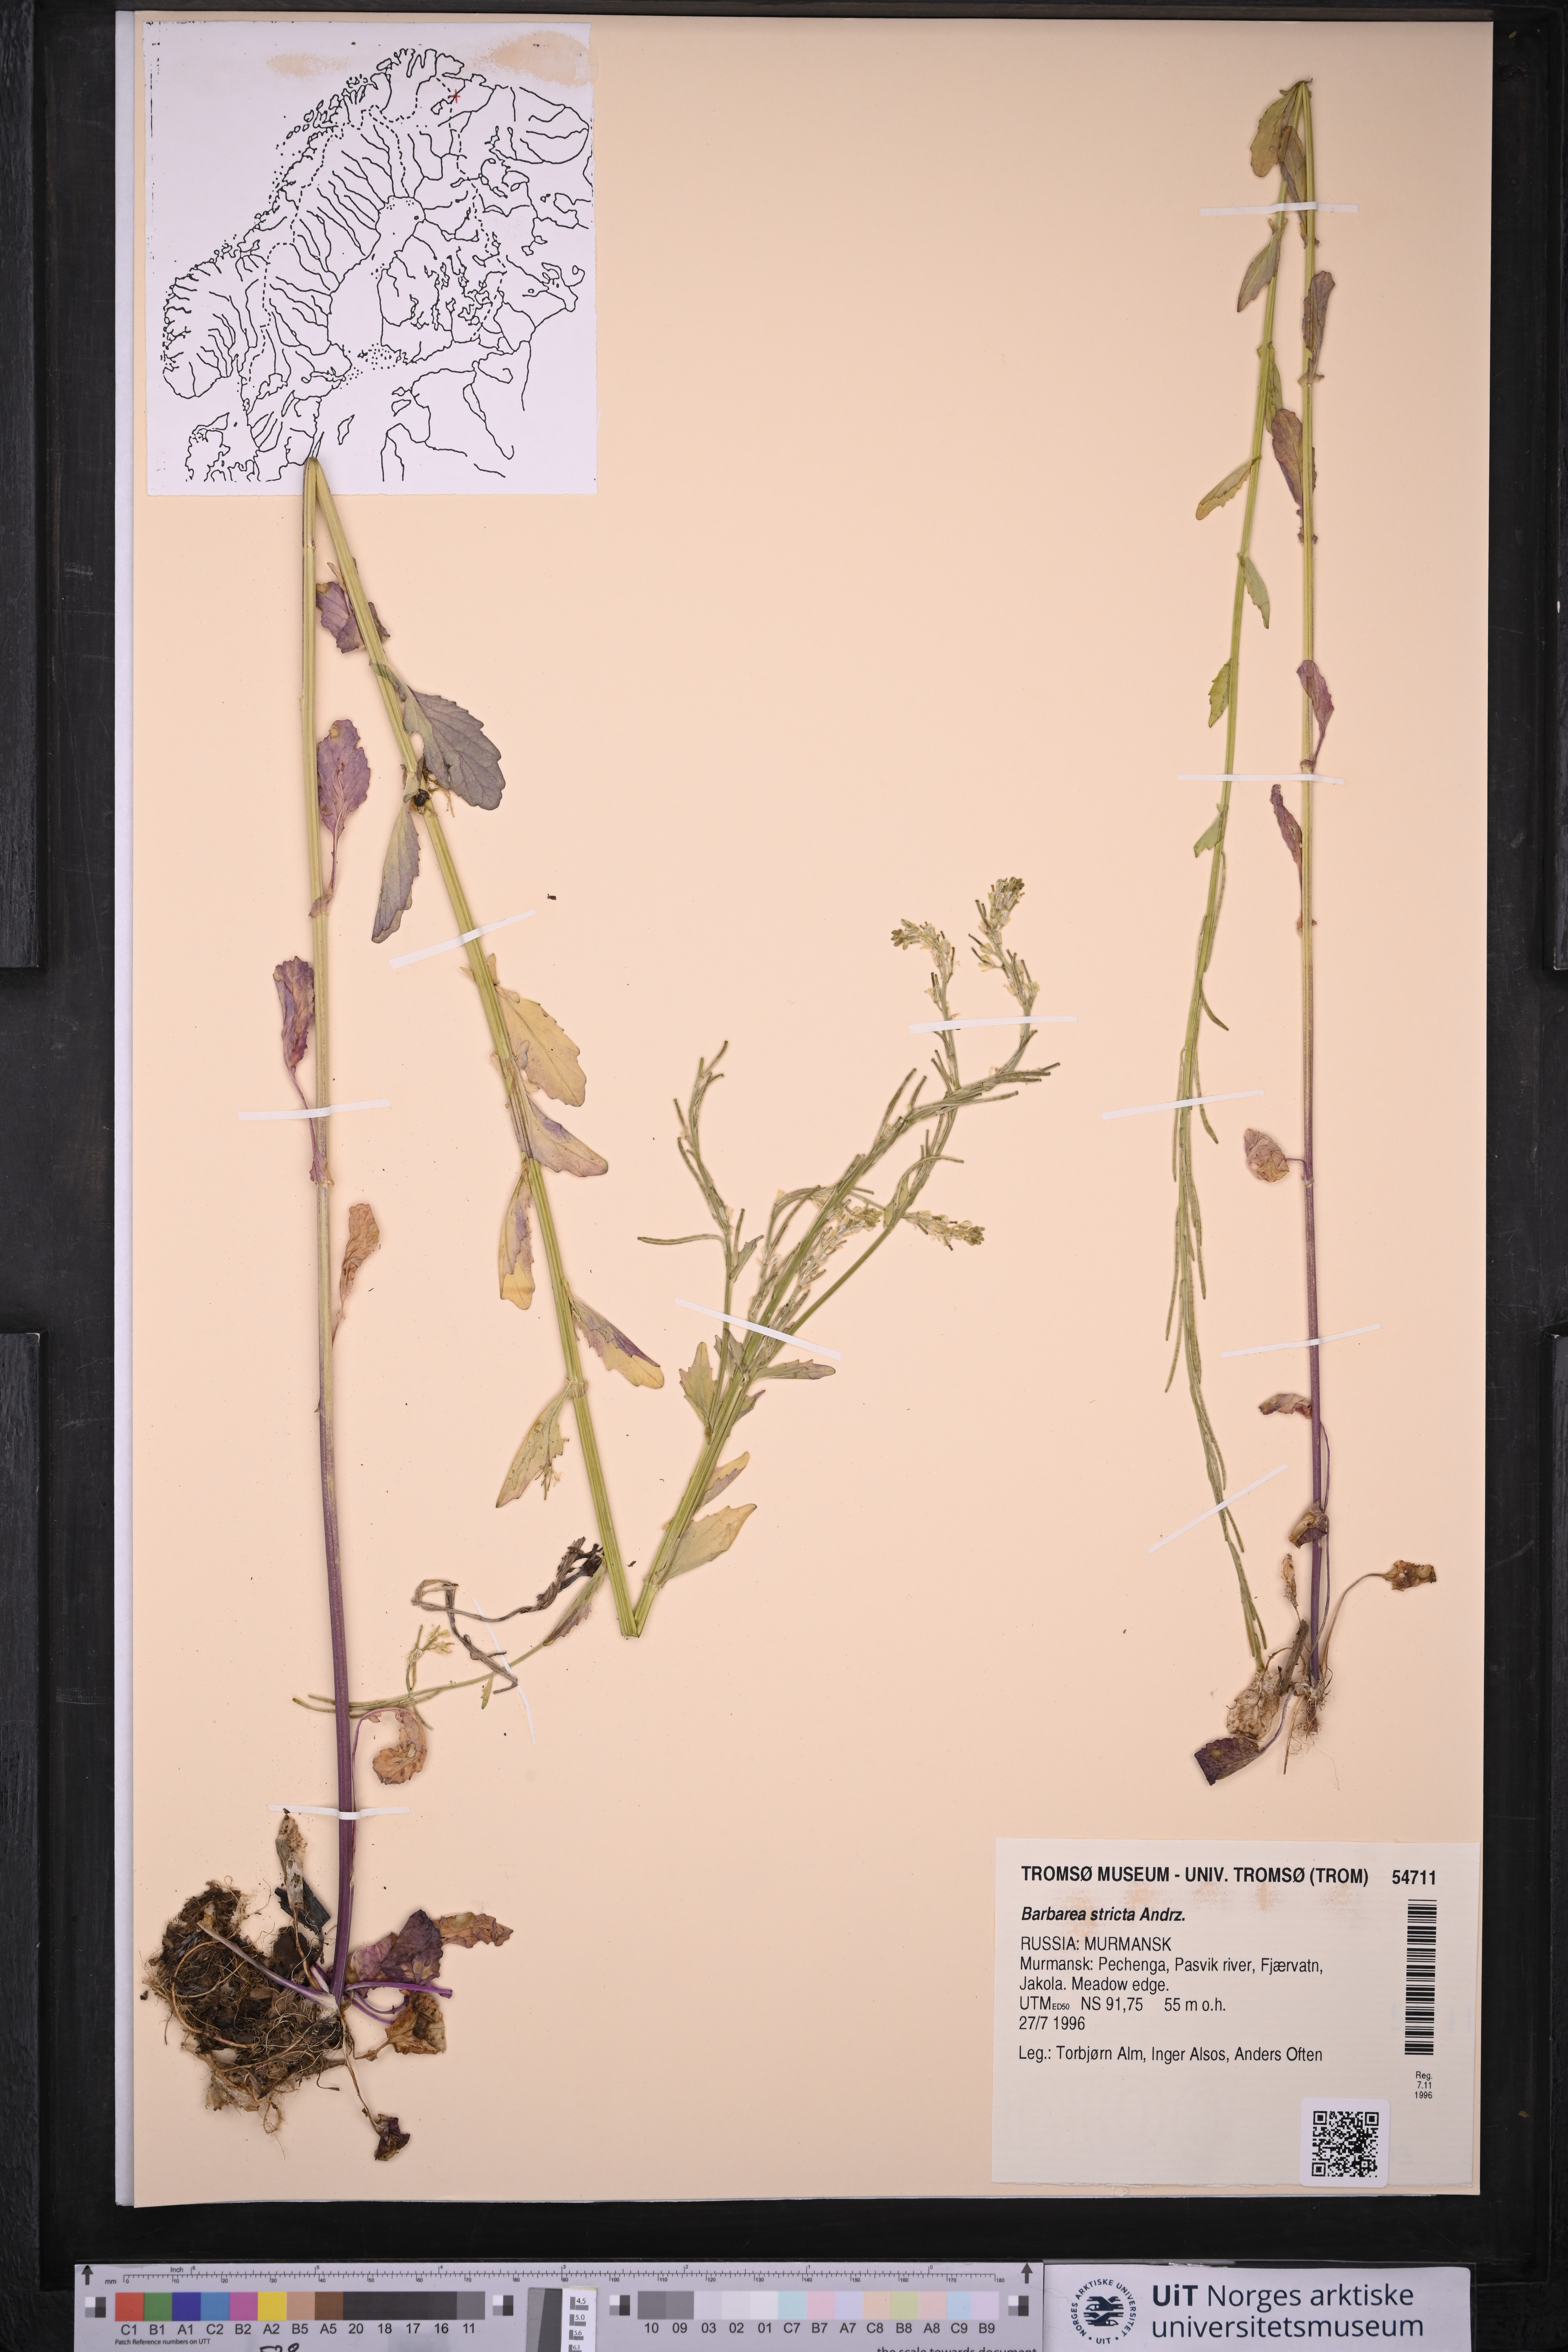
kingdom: Plantae
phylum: Tracheophyta
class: Magnoliopsida
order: Brassicales
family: Brassicaceae
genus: Barbarea
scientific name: Barbarea stricta
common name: Small-flowered winter-cress
